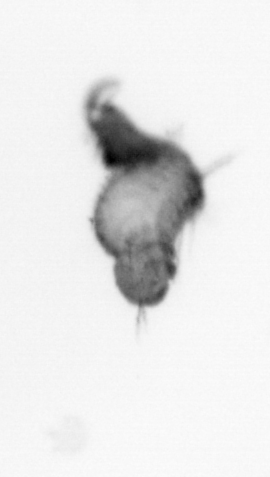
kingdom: Animalia
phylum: Annelida
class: Polychaeta
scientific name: Polychaeta
